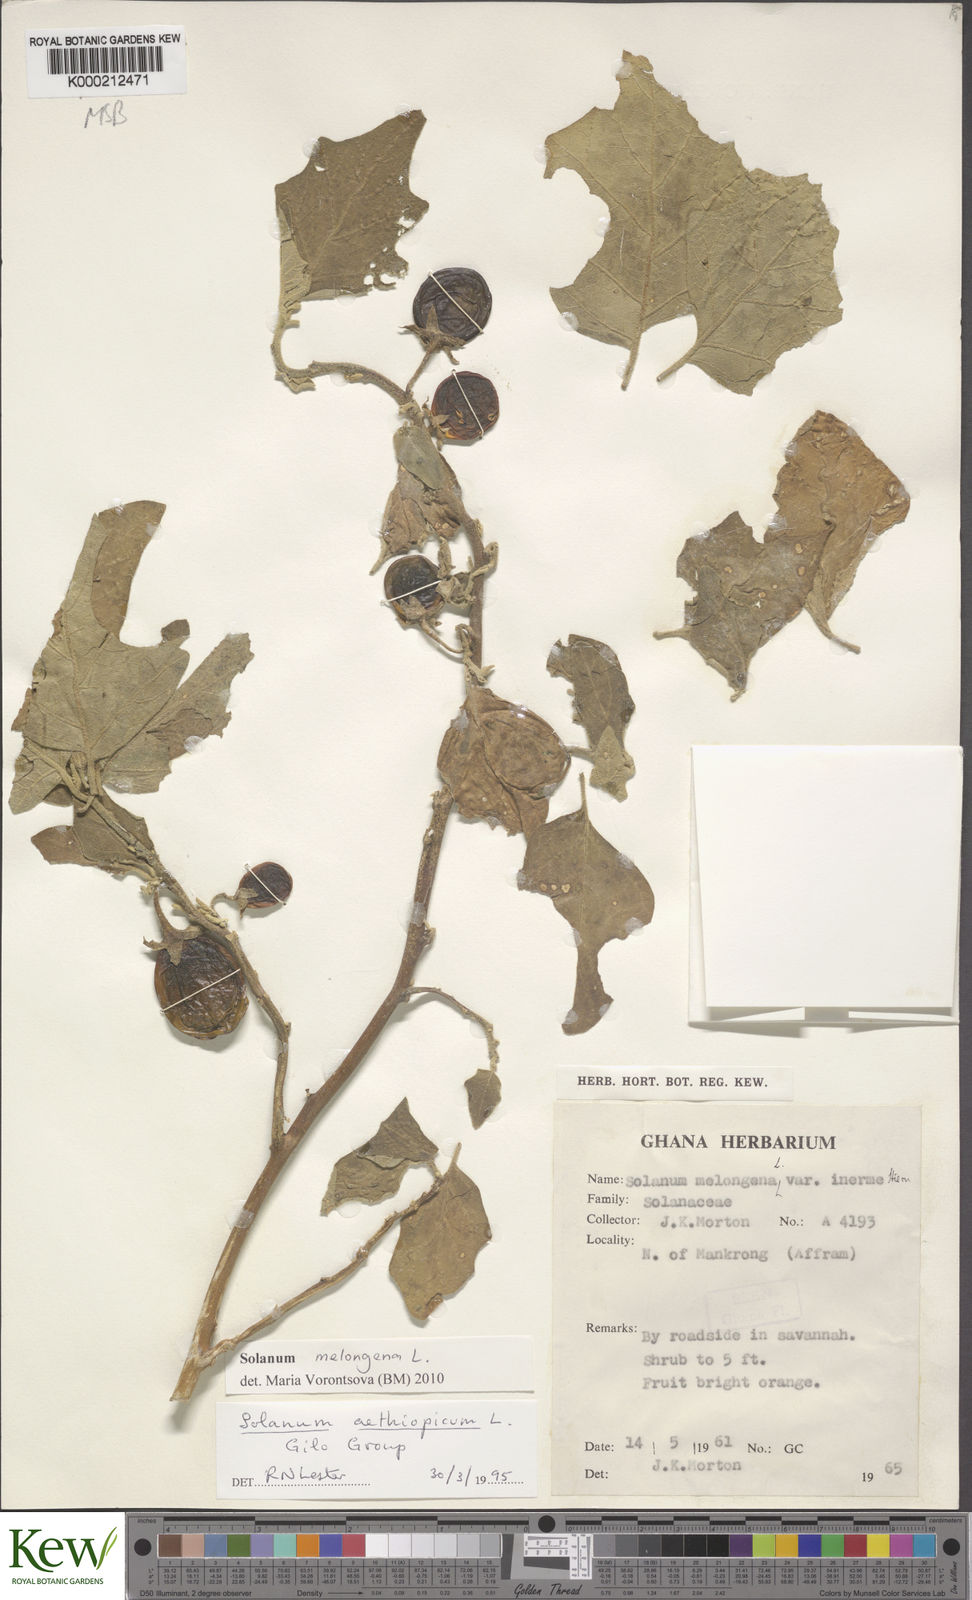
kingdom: Plantae
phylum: Tracheophyta
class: Magnoliopsida
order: Solanales
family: Solanaceae
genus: Solanum
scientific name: Solanum aethiopicum
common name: Gilo
